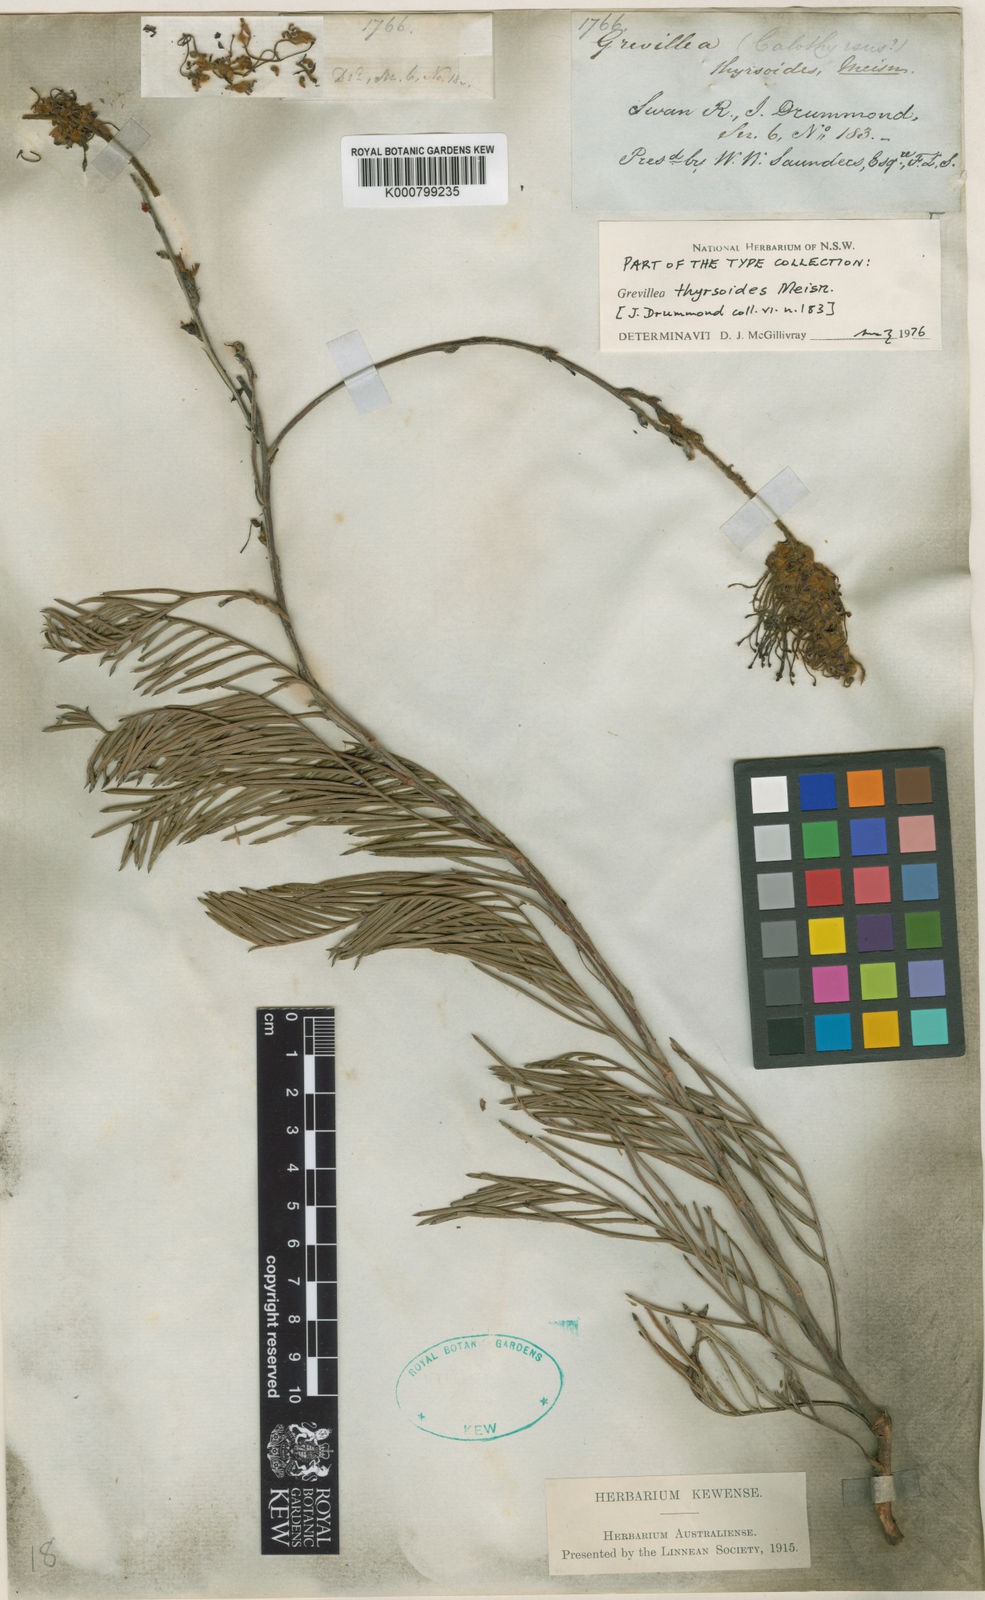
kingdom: Plantae
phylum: Tracheophyta
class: Magnoliopsida
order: Proteales
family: Proteaceae
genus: Grevillea
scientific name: Grevillea thyrsoides
